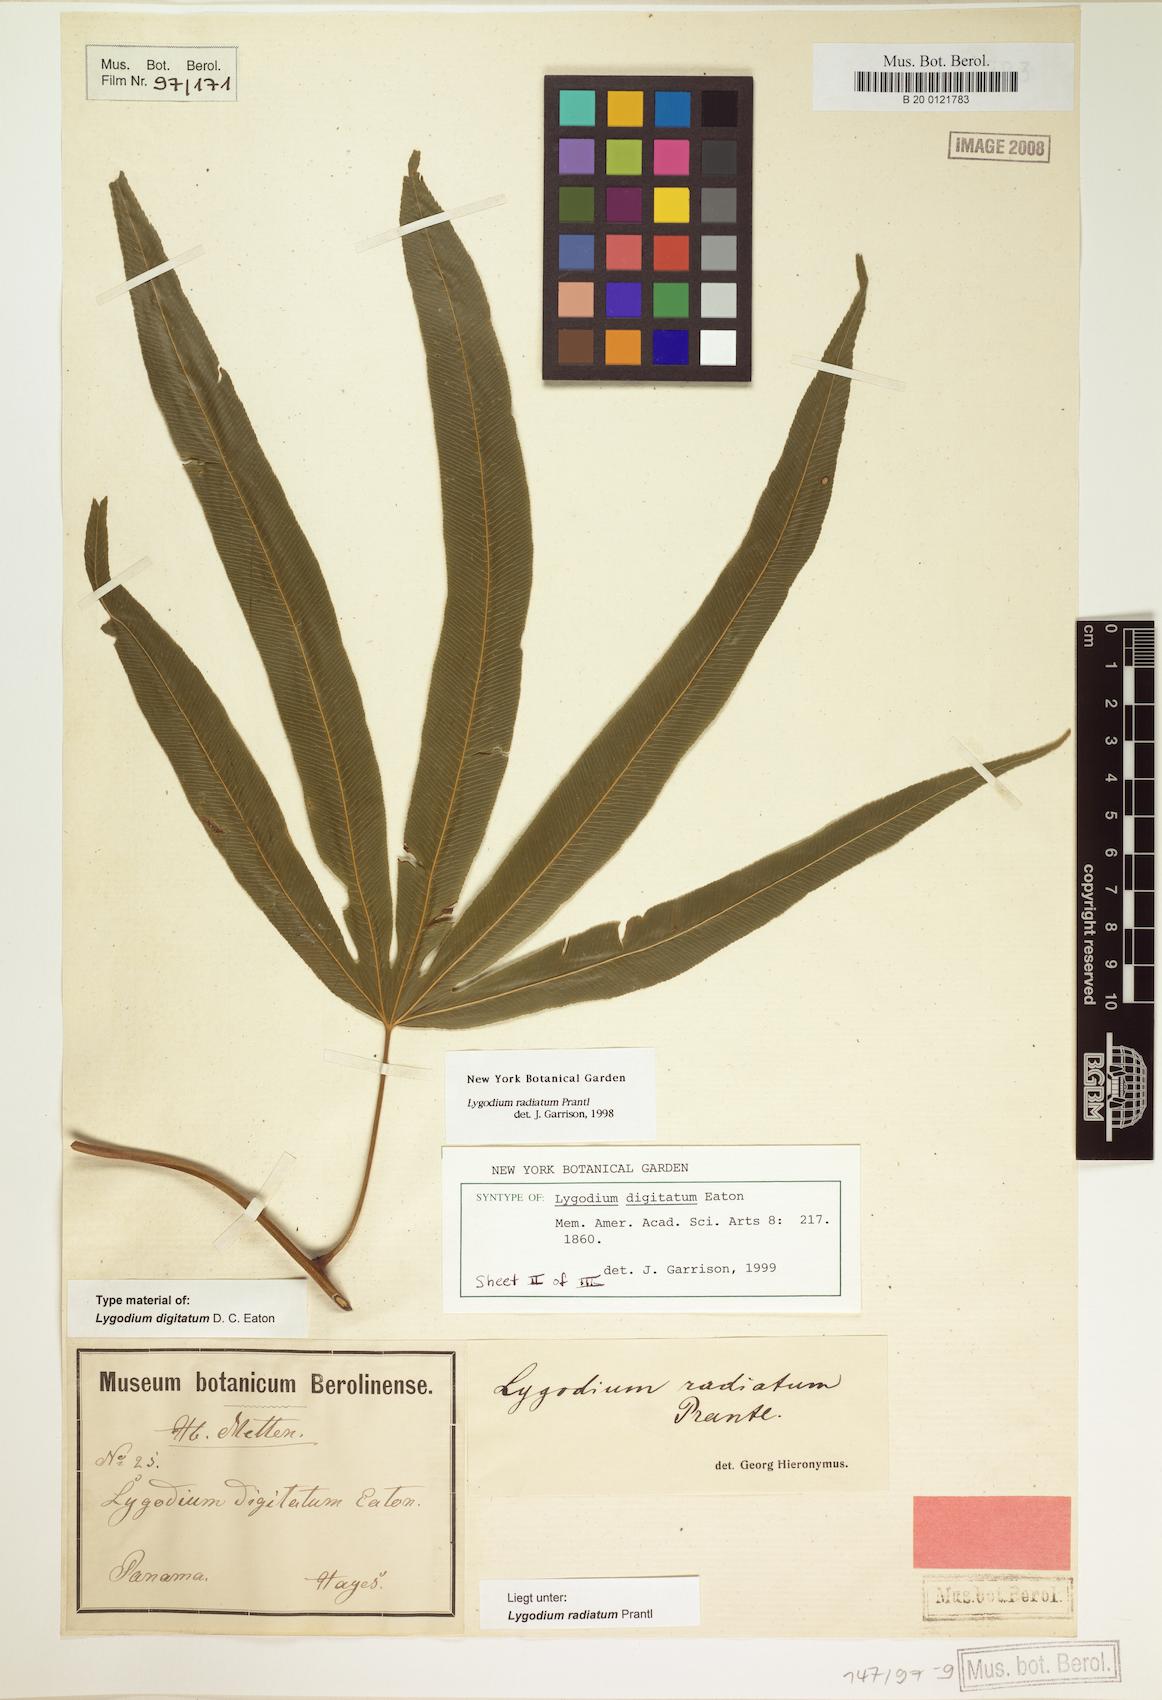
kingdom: Plantae
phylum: Tracheophyta
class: Polypodiopsida
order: Schizaeales
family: Lygodiaceae
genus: Lygodium
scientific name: Lygodium radiatum
